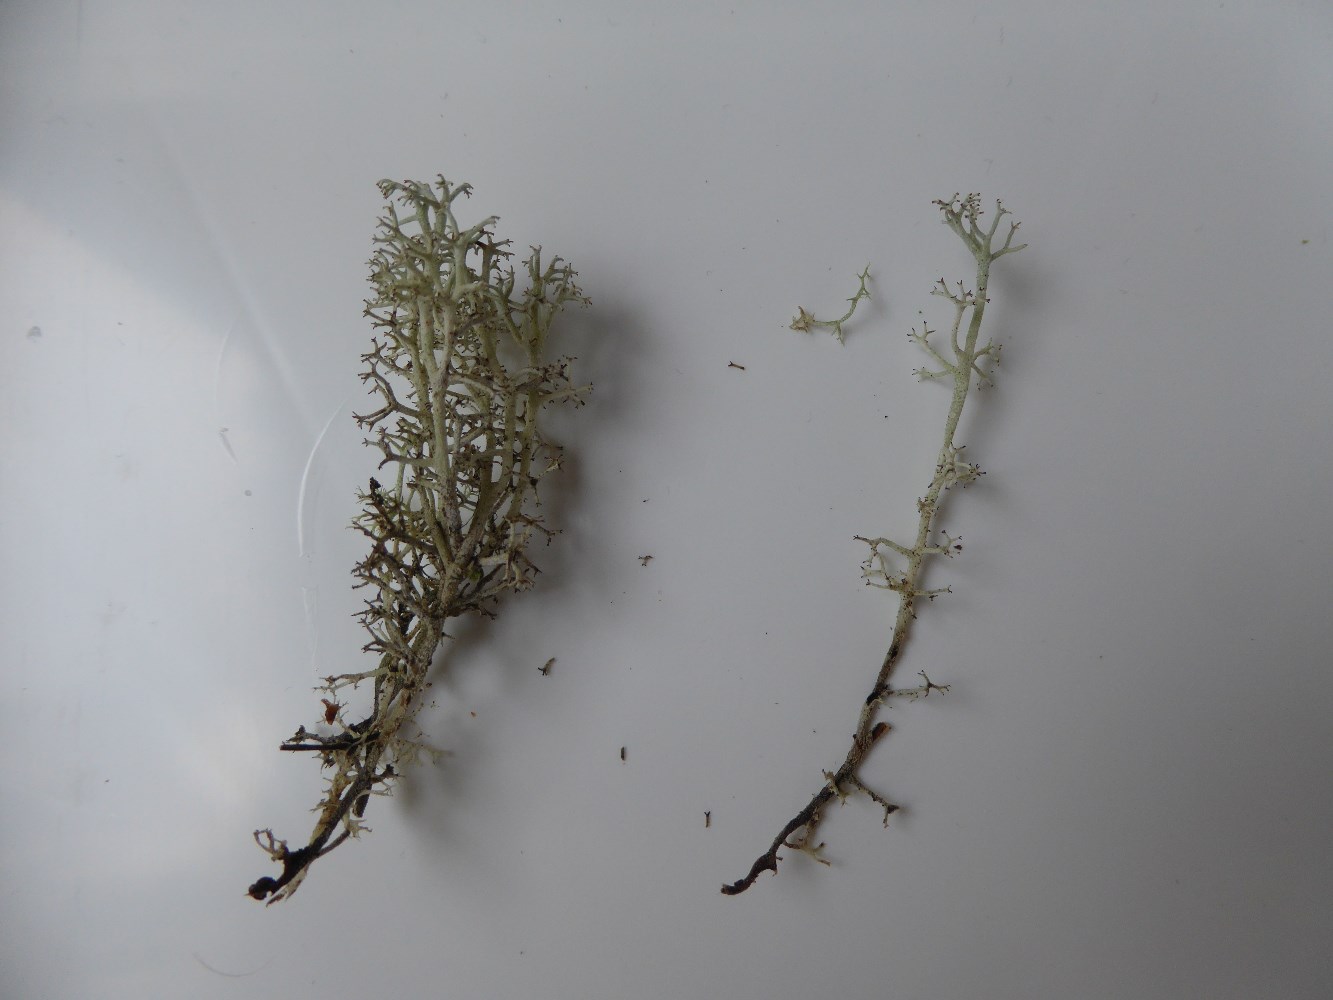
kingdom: Fungi
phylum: Ascomycota
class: Lecanoromycetes
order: Lecanorales
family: Cladoniaceae
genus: Cladonia
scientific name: Cladonia stygia
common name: styg rensdyrlav
